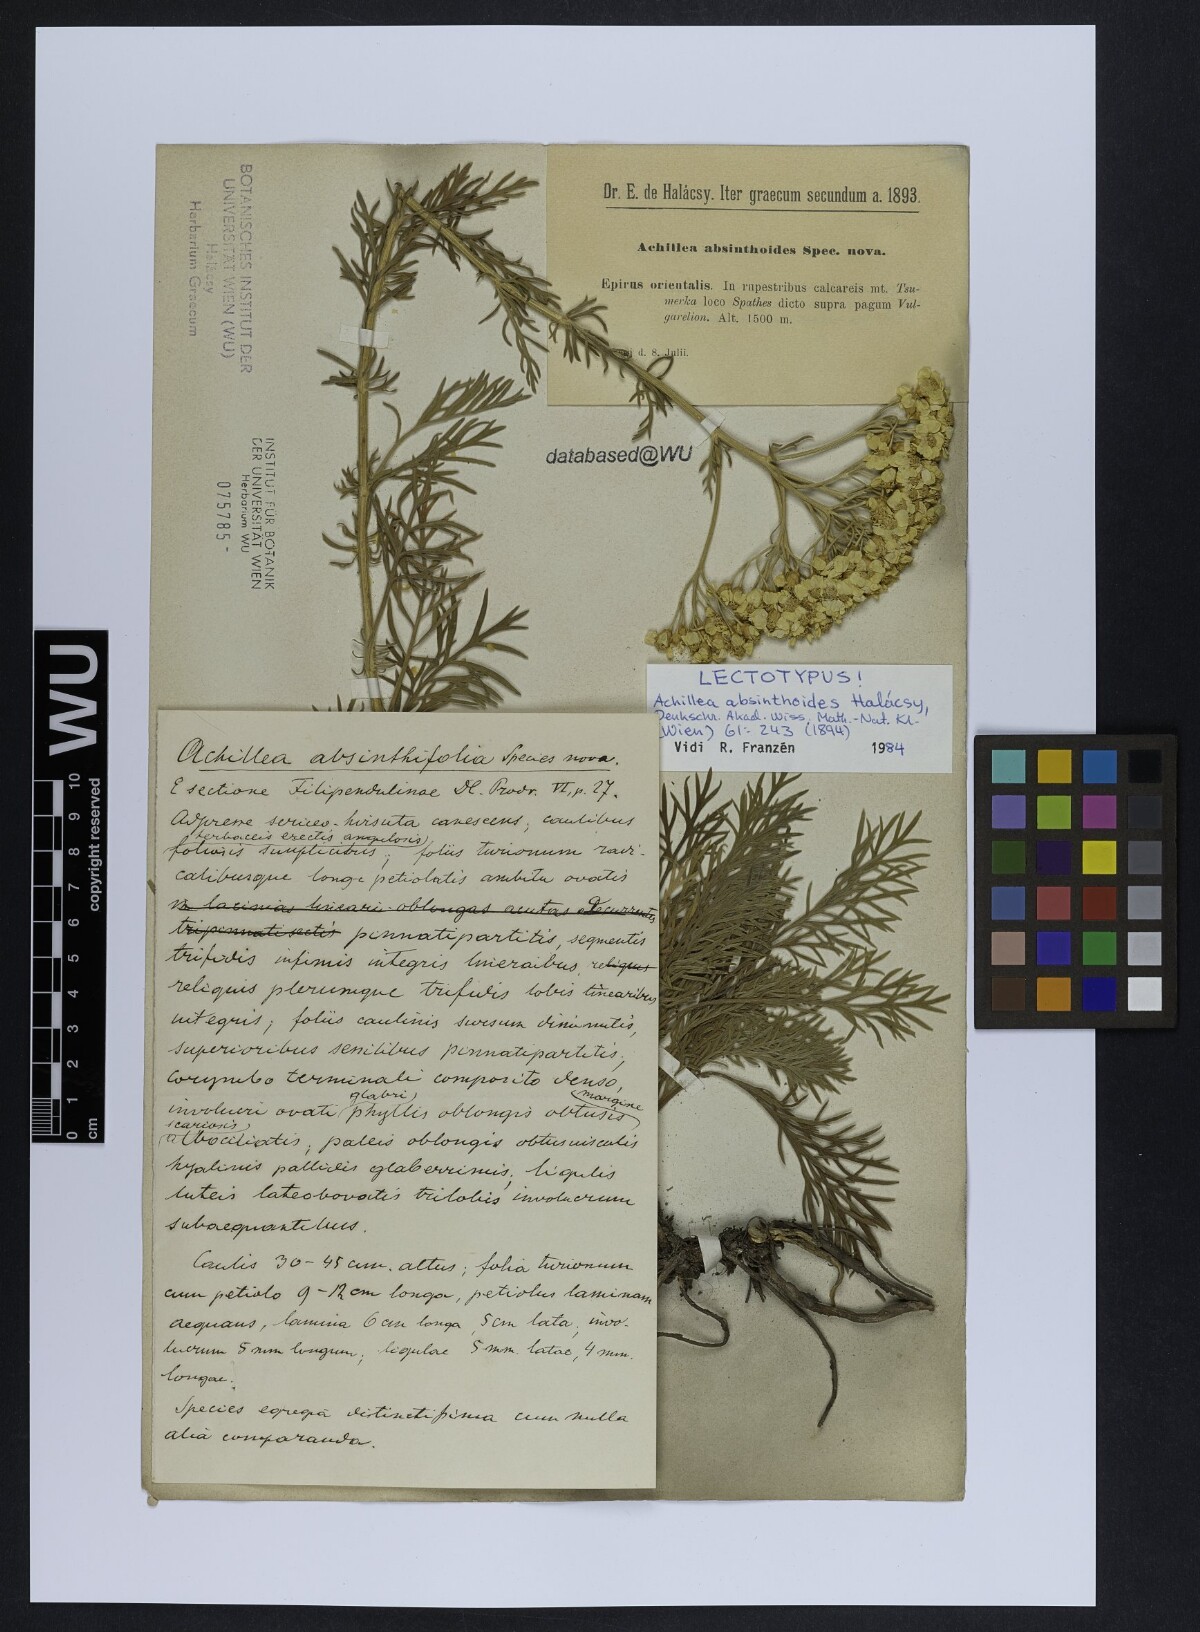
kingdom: Plantae
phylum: Tracheophyta
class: Magnoliopsida
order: Asterales
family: Asteraceae
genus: Achillea
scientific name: Achillea absinthoides
